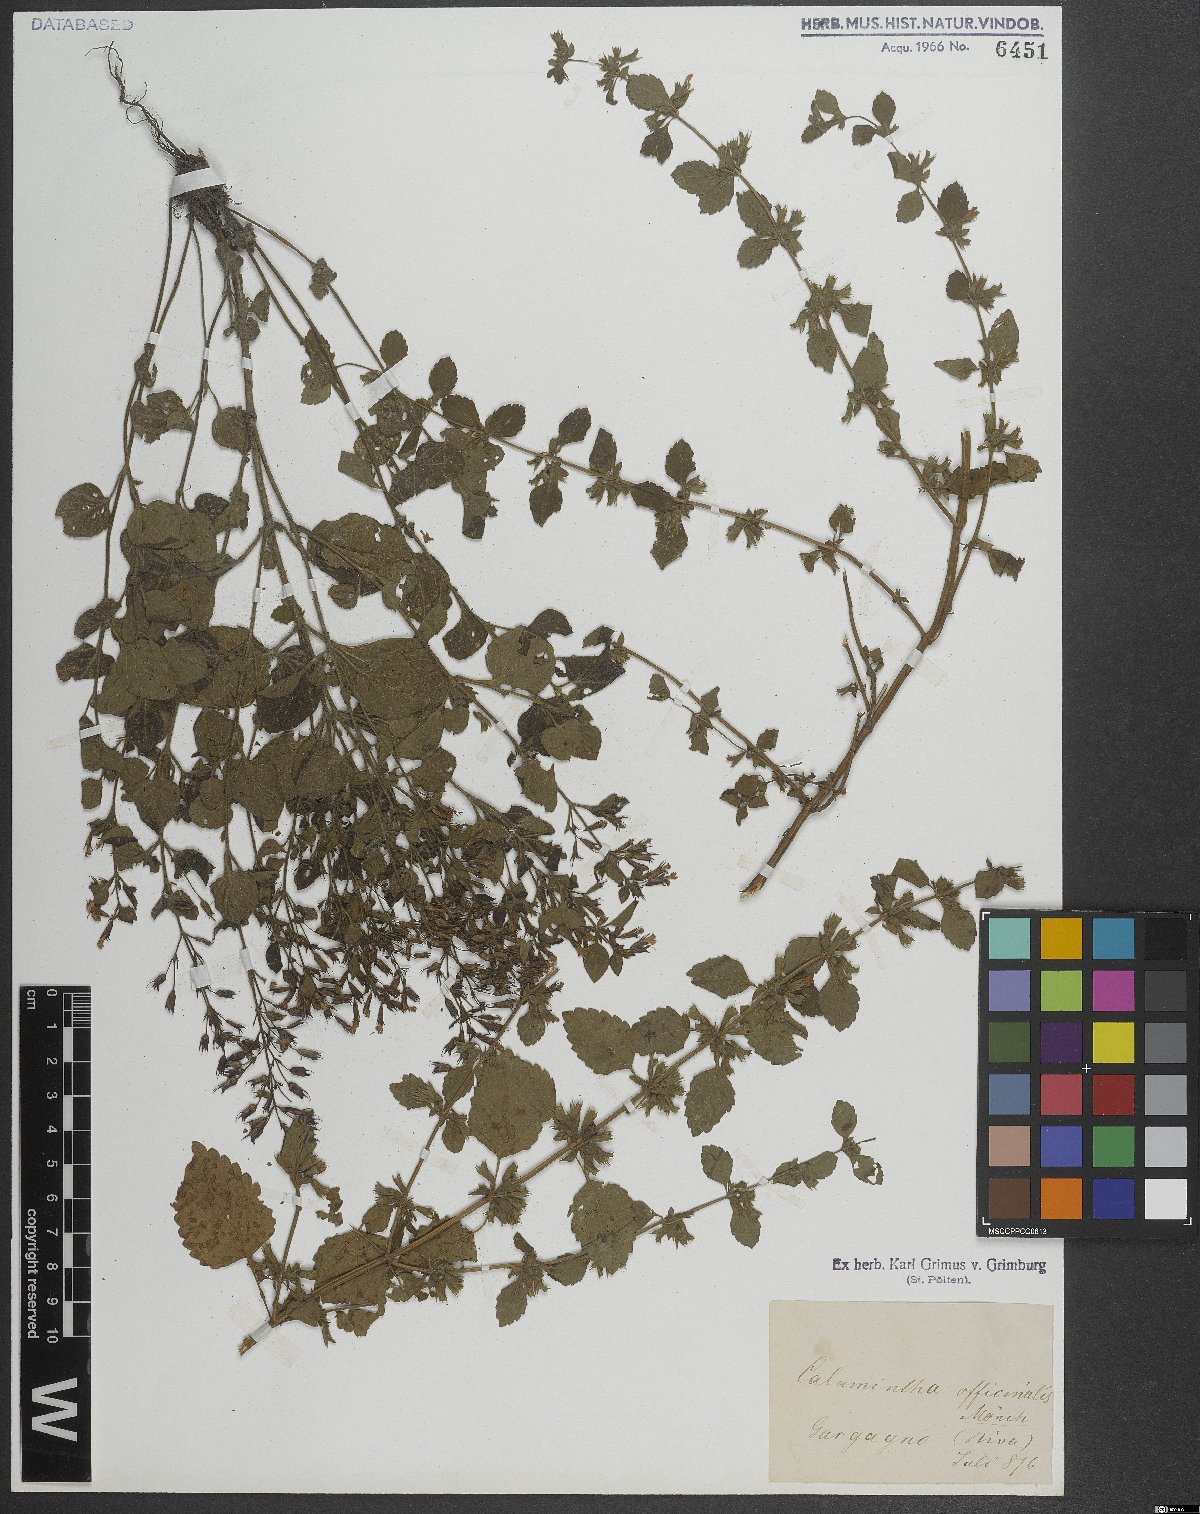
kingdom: Plantae
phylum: Tracheophyta
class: Magnoliopsida
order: Lamiales
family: Lamiaceae
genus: Clinopodium
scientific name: Clinopodium nepeta
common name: Lesser calamint
